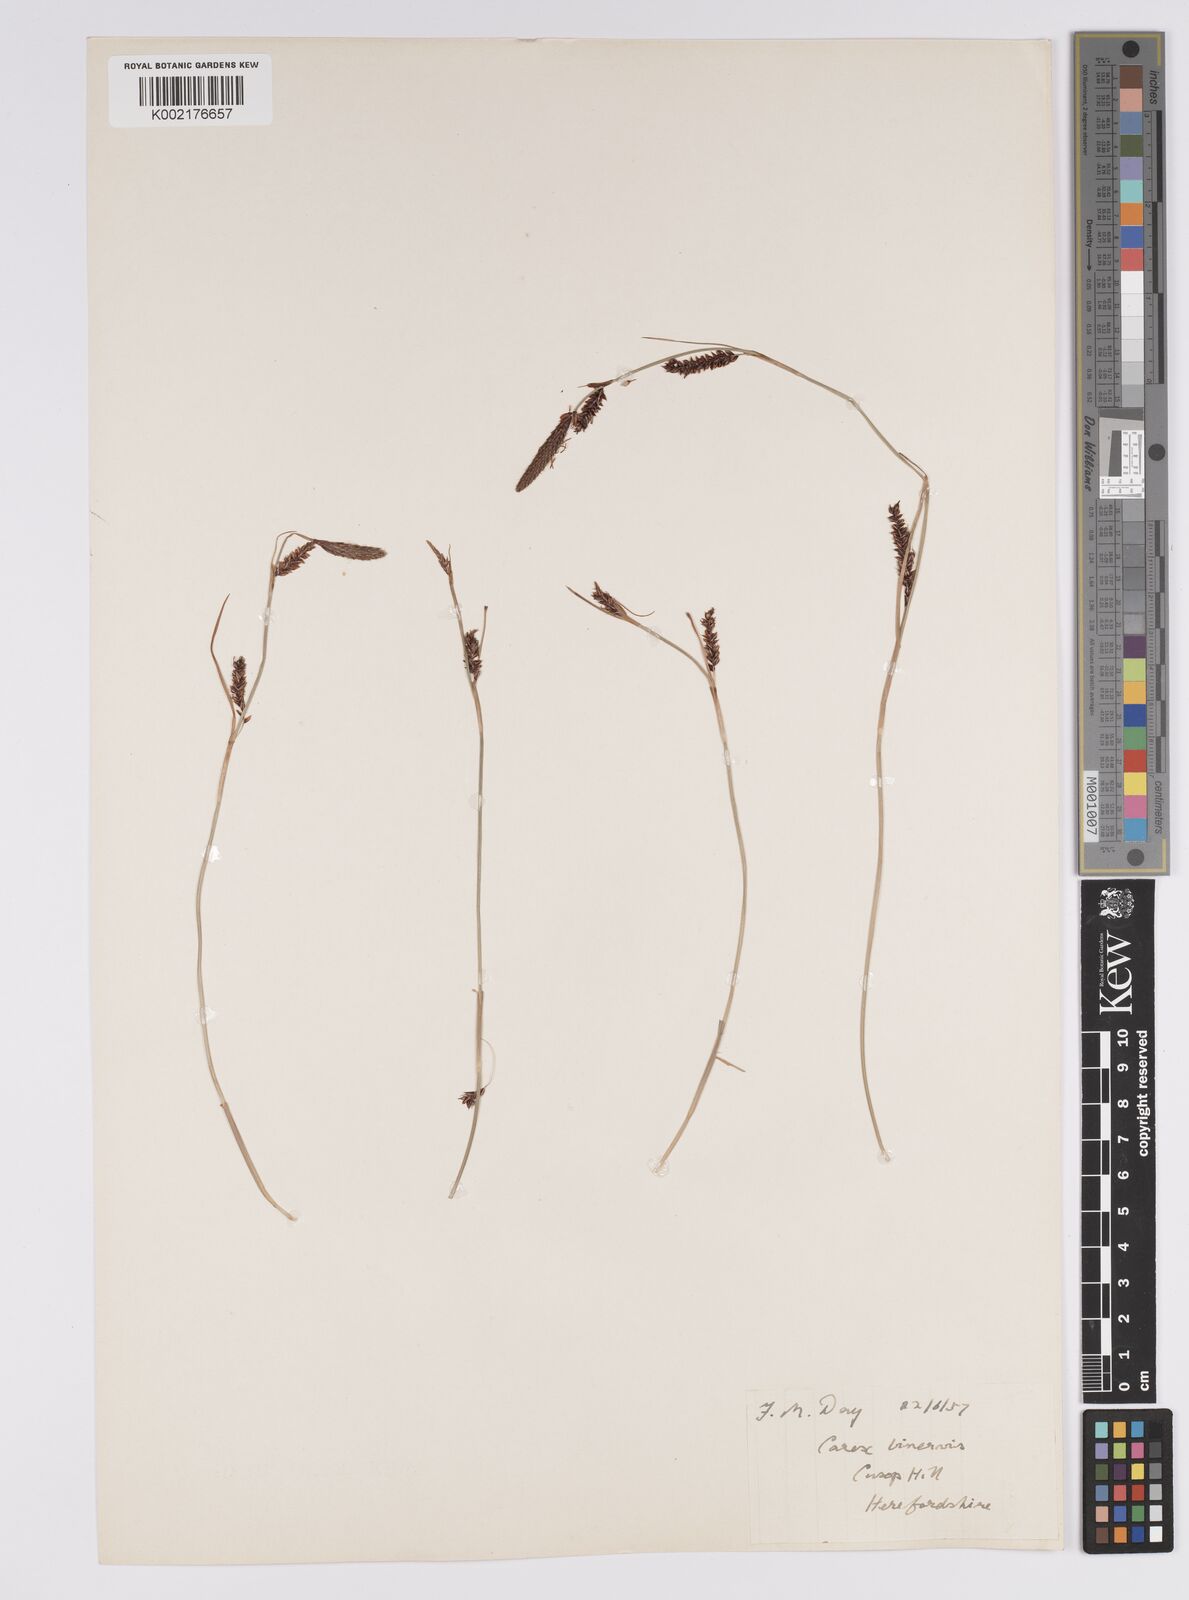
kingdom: Plantae
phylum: Tracheophyta
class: Liliopsida
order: Poales
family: Cyperaceae
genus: Carex
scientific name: Carex binervis
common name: Green-ribbed sedge
